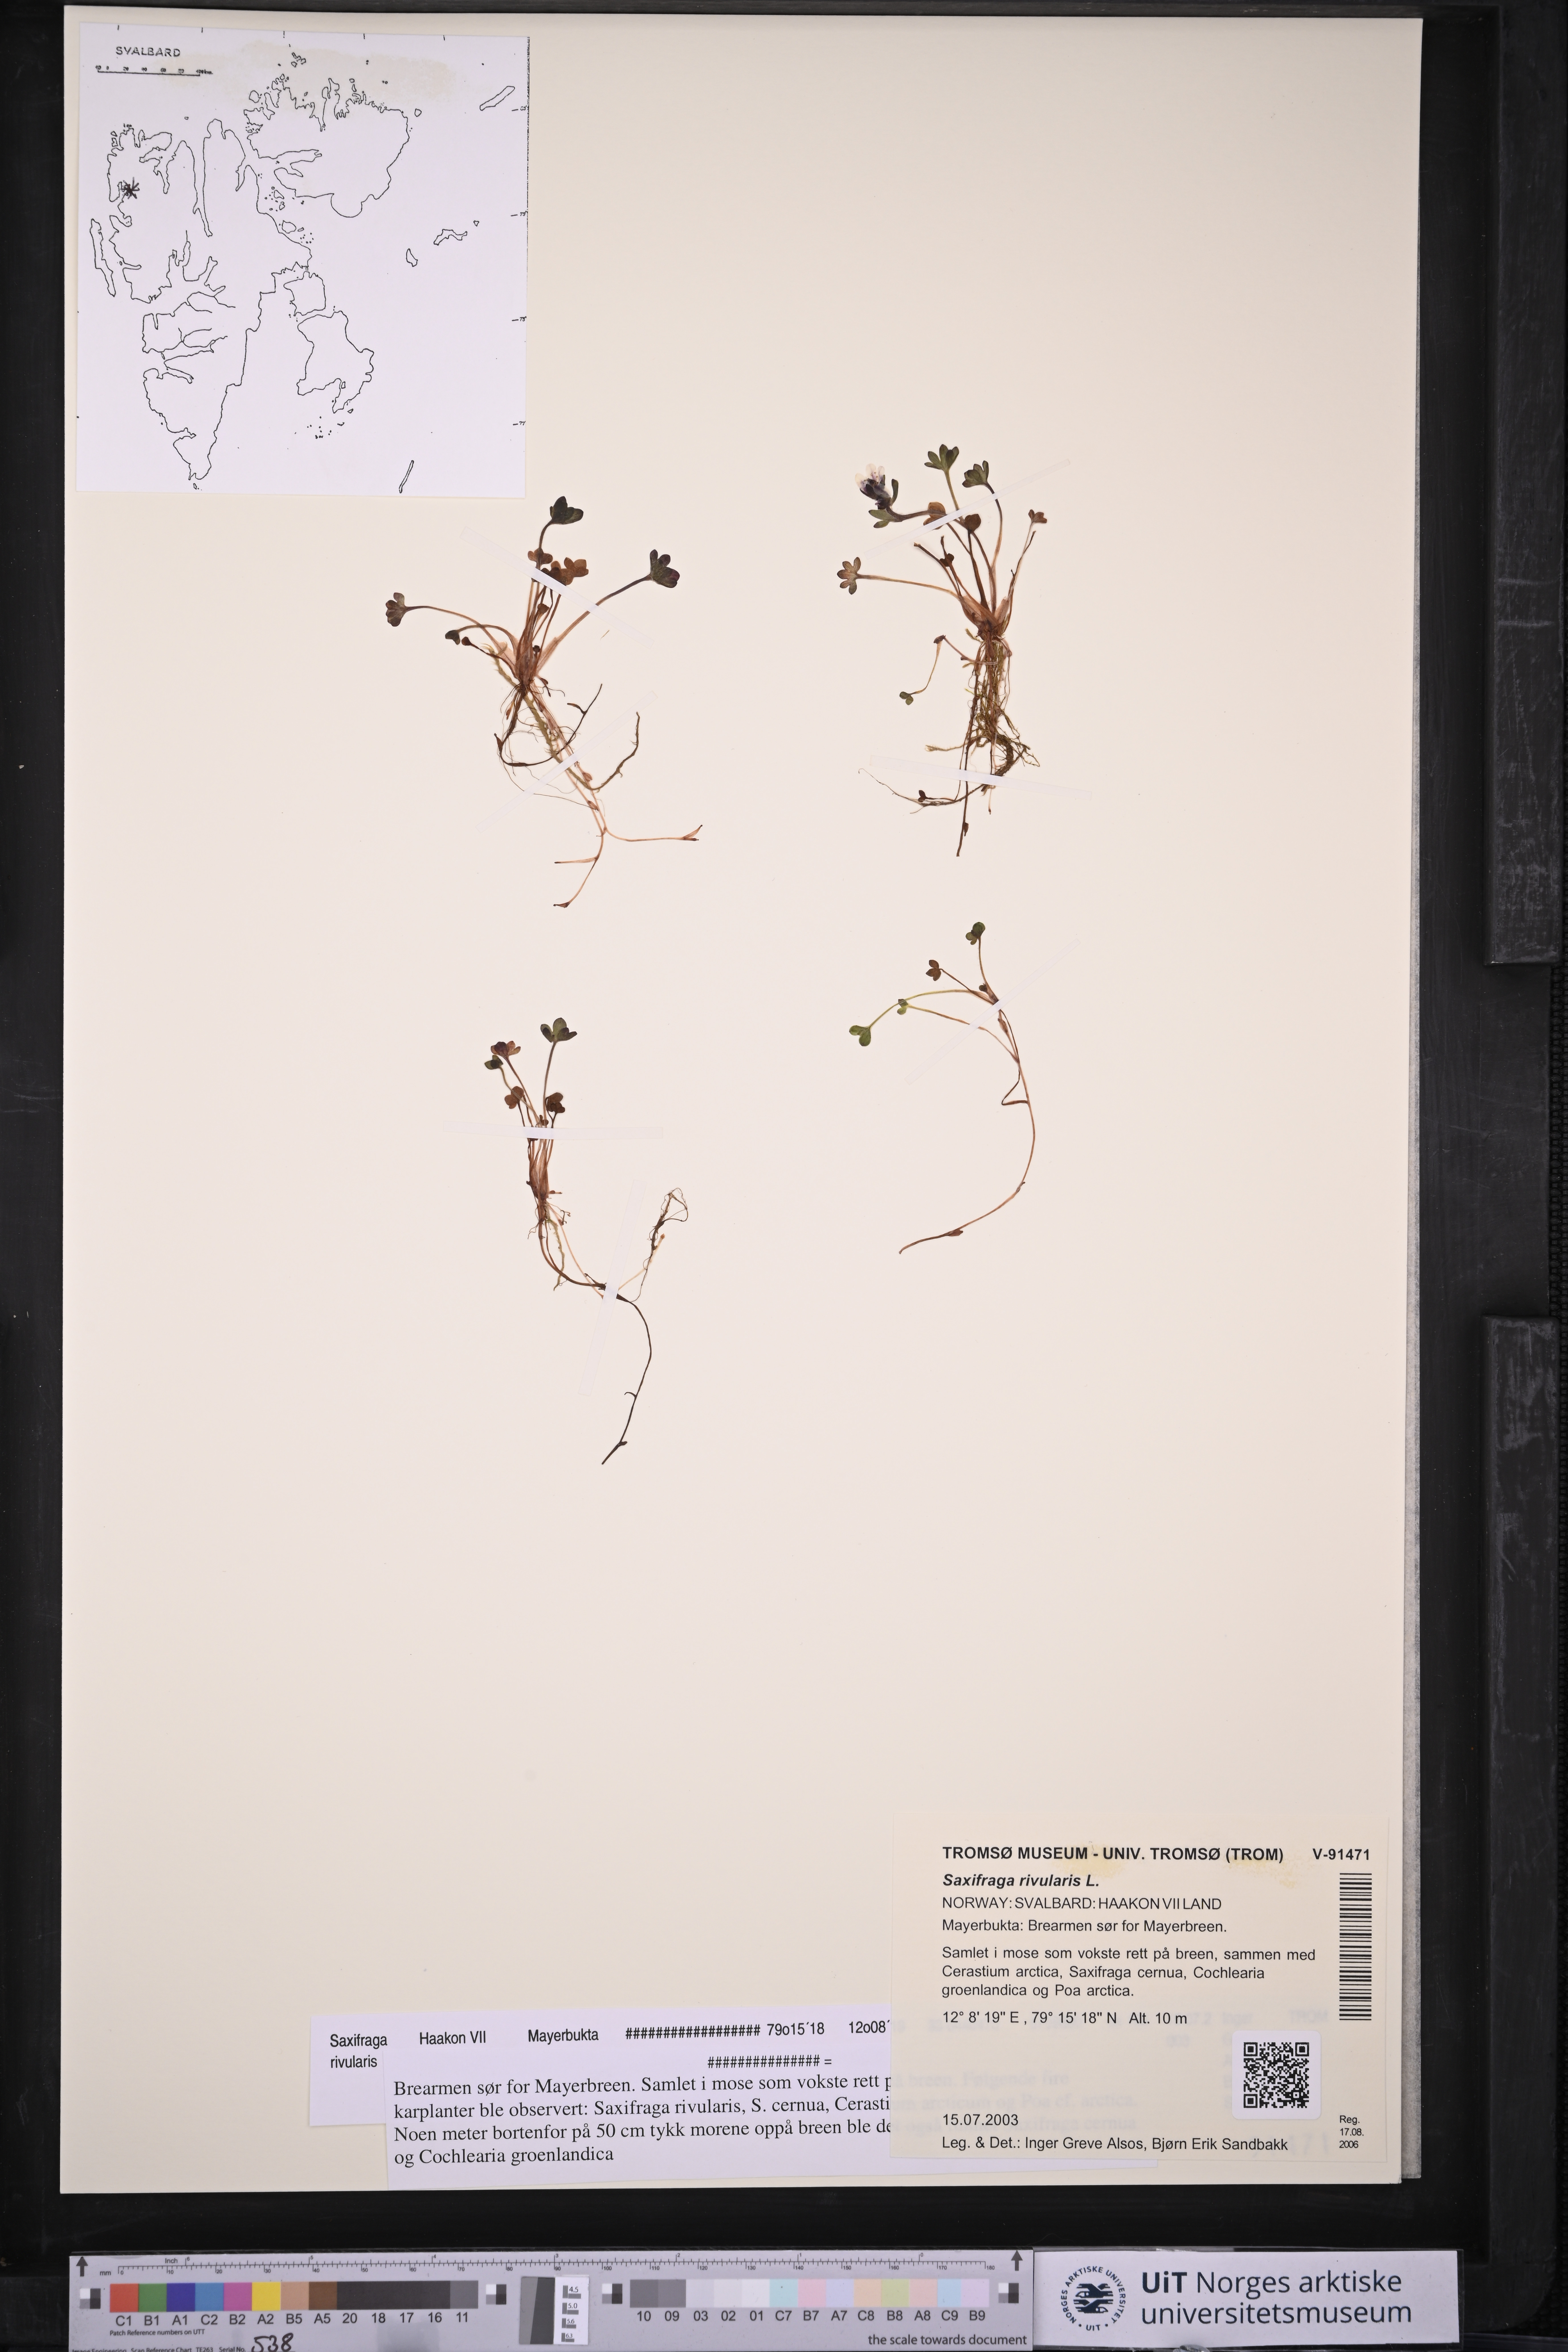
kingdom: Plantae
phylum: Tracheophyta
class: Magnoliopsida
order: Saxifragales
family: Saxifragaceae
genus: Saxifraga
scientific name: Saxifraga rivularis
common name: Highland saxifrage
